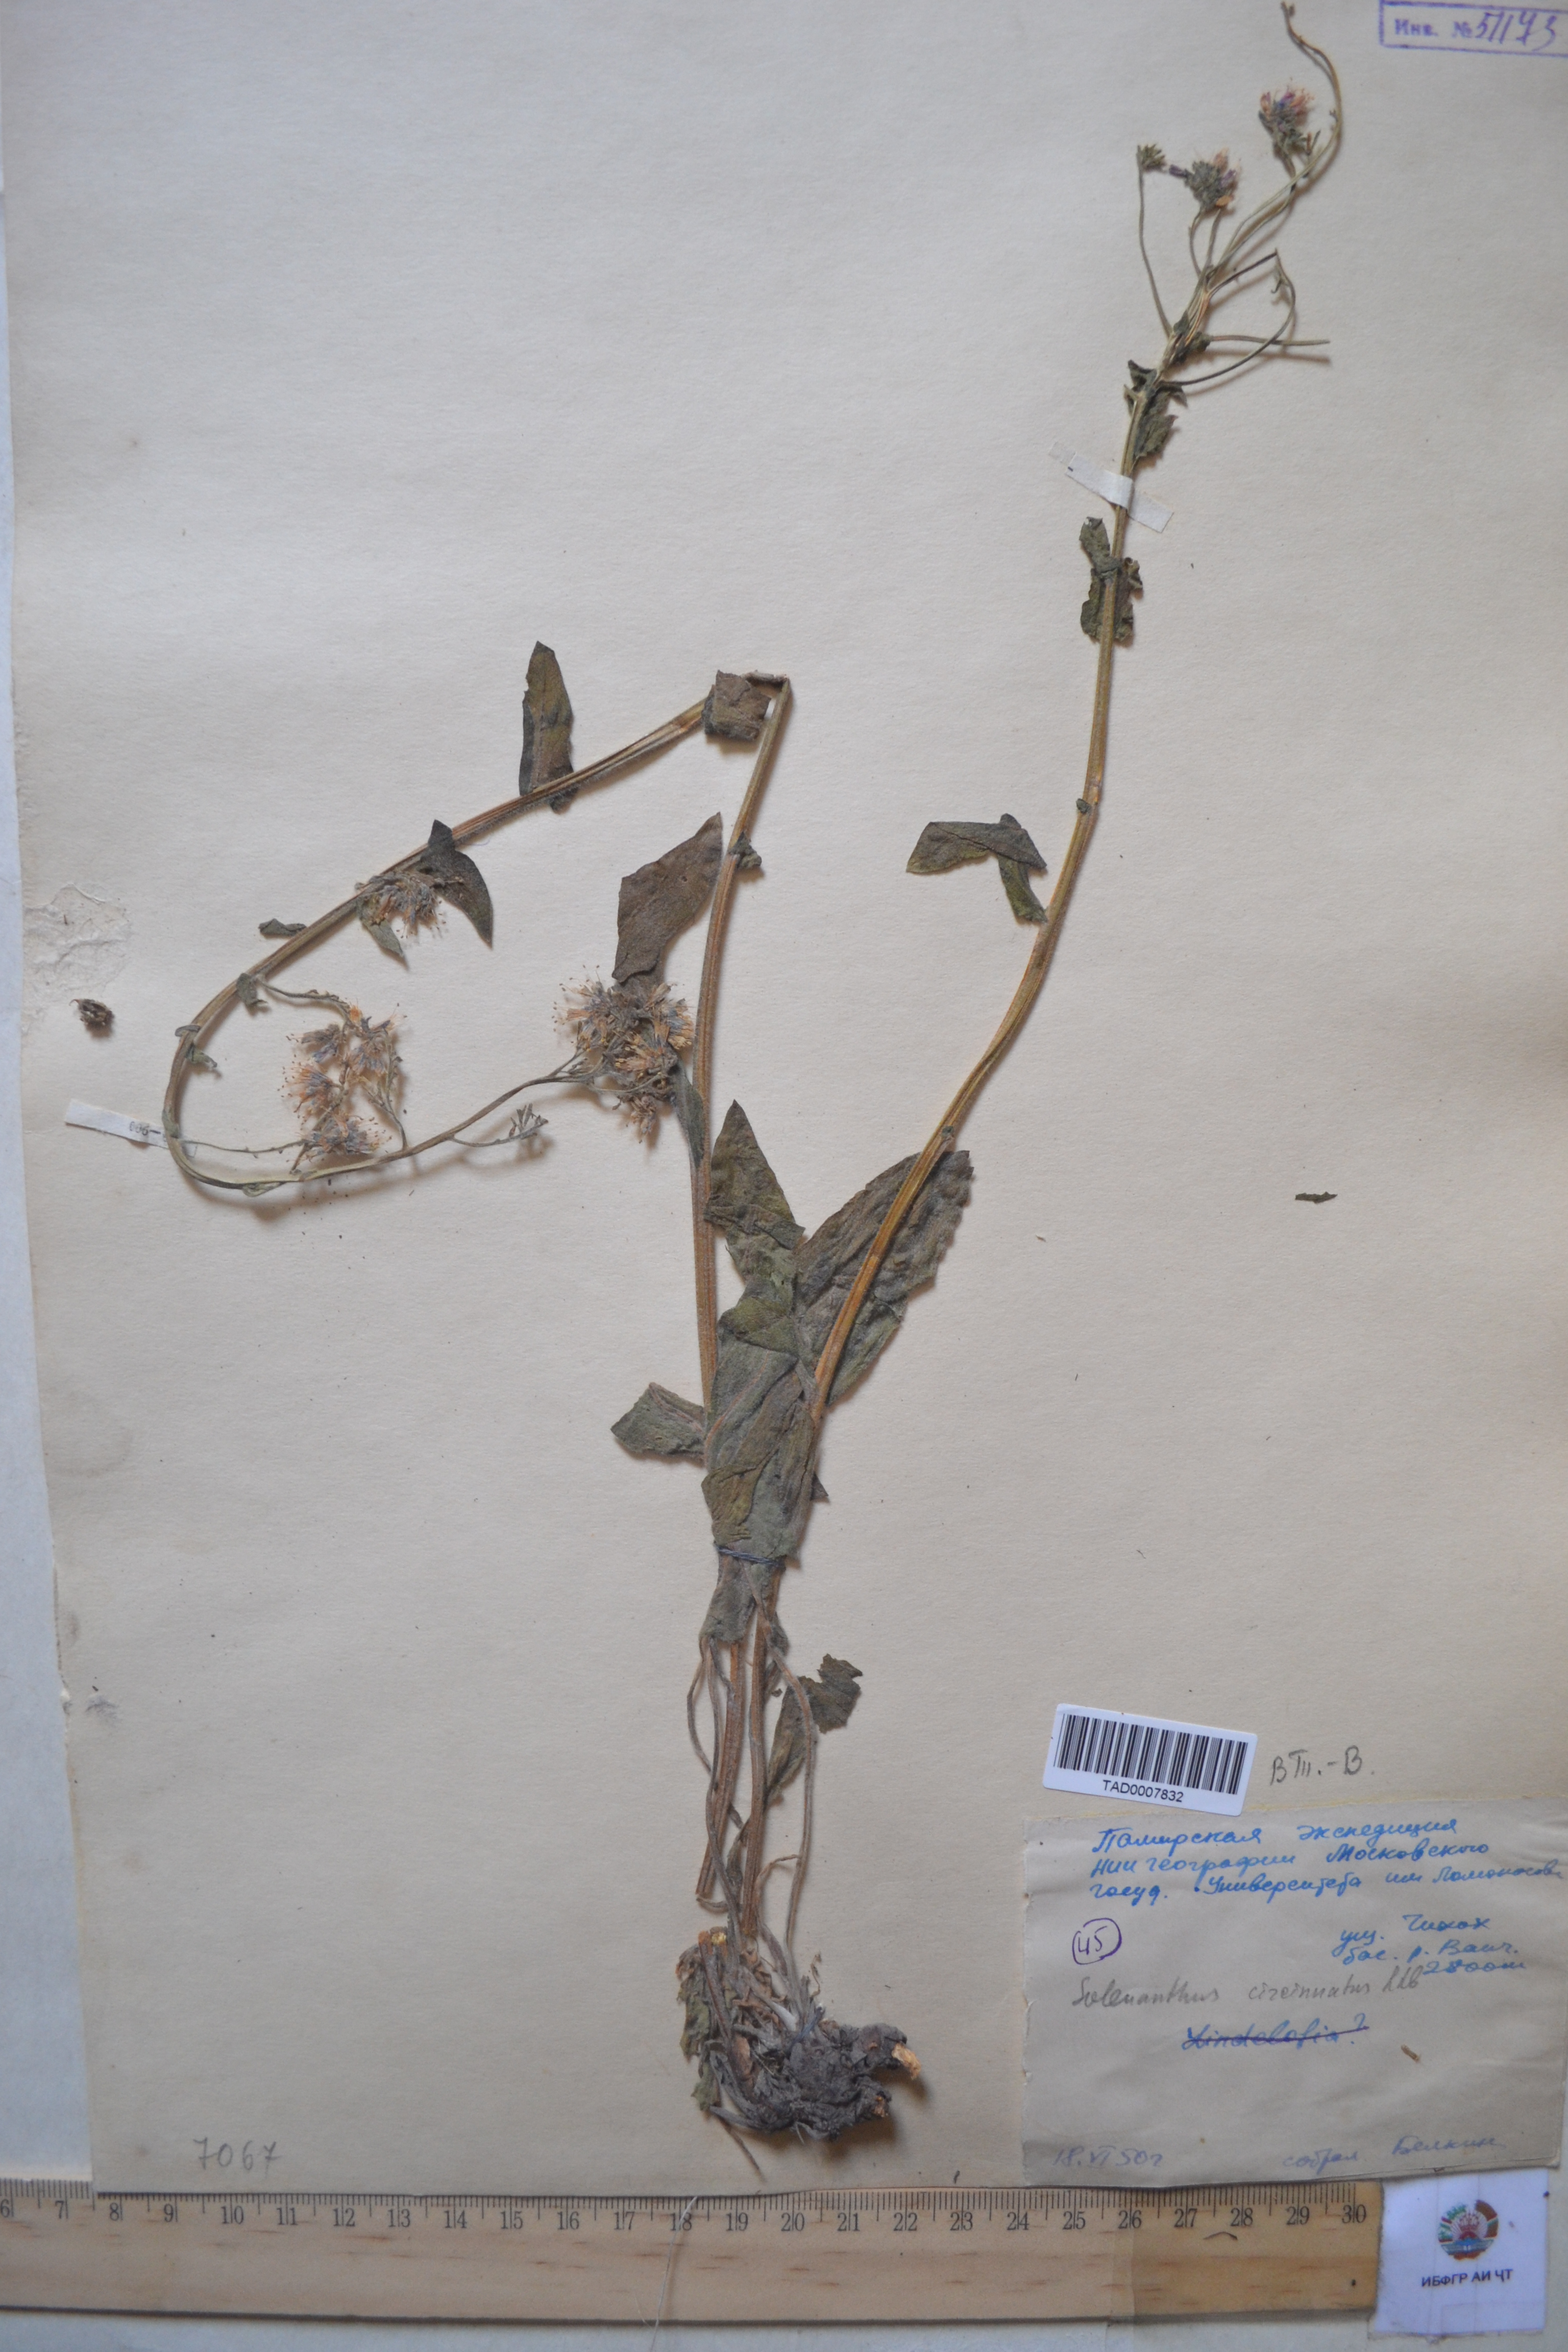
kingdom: Plantae
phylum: Tracheophyta
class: Magnoliopsida
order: Boraginales
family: Boraginaceae
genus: Solenanthus
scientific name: Solenanthus circinnatus
